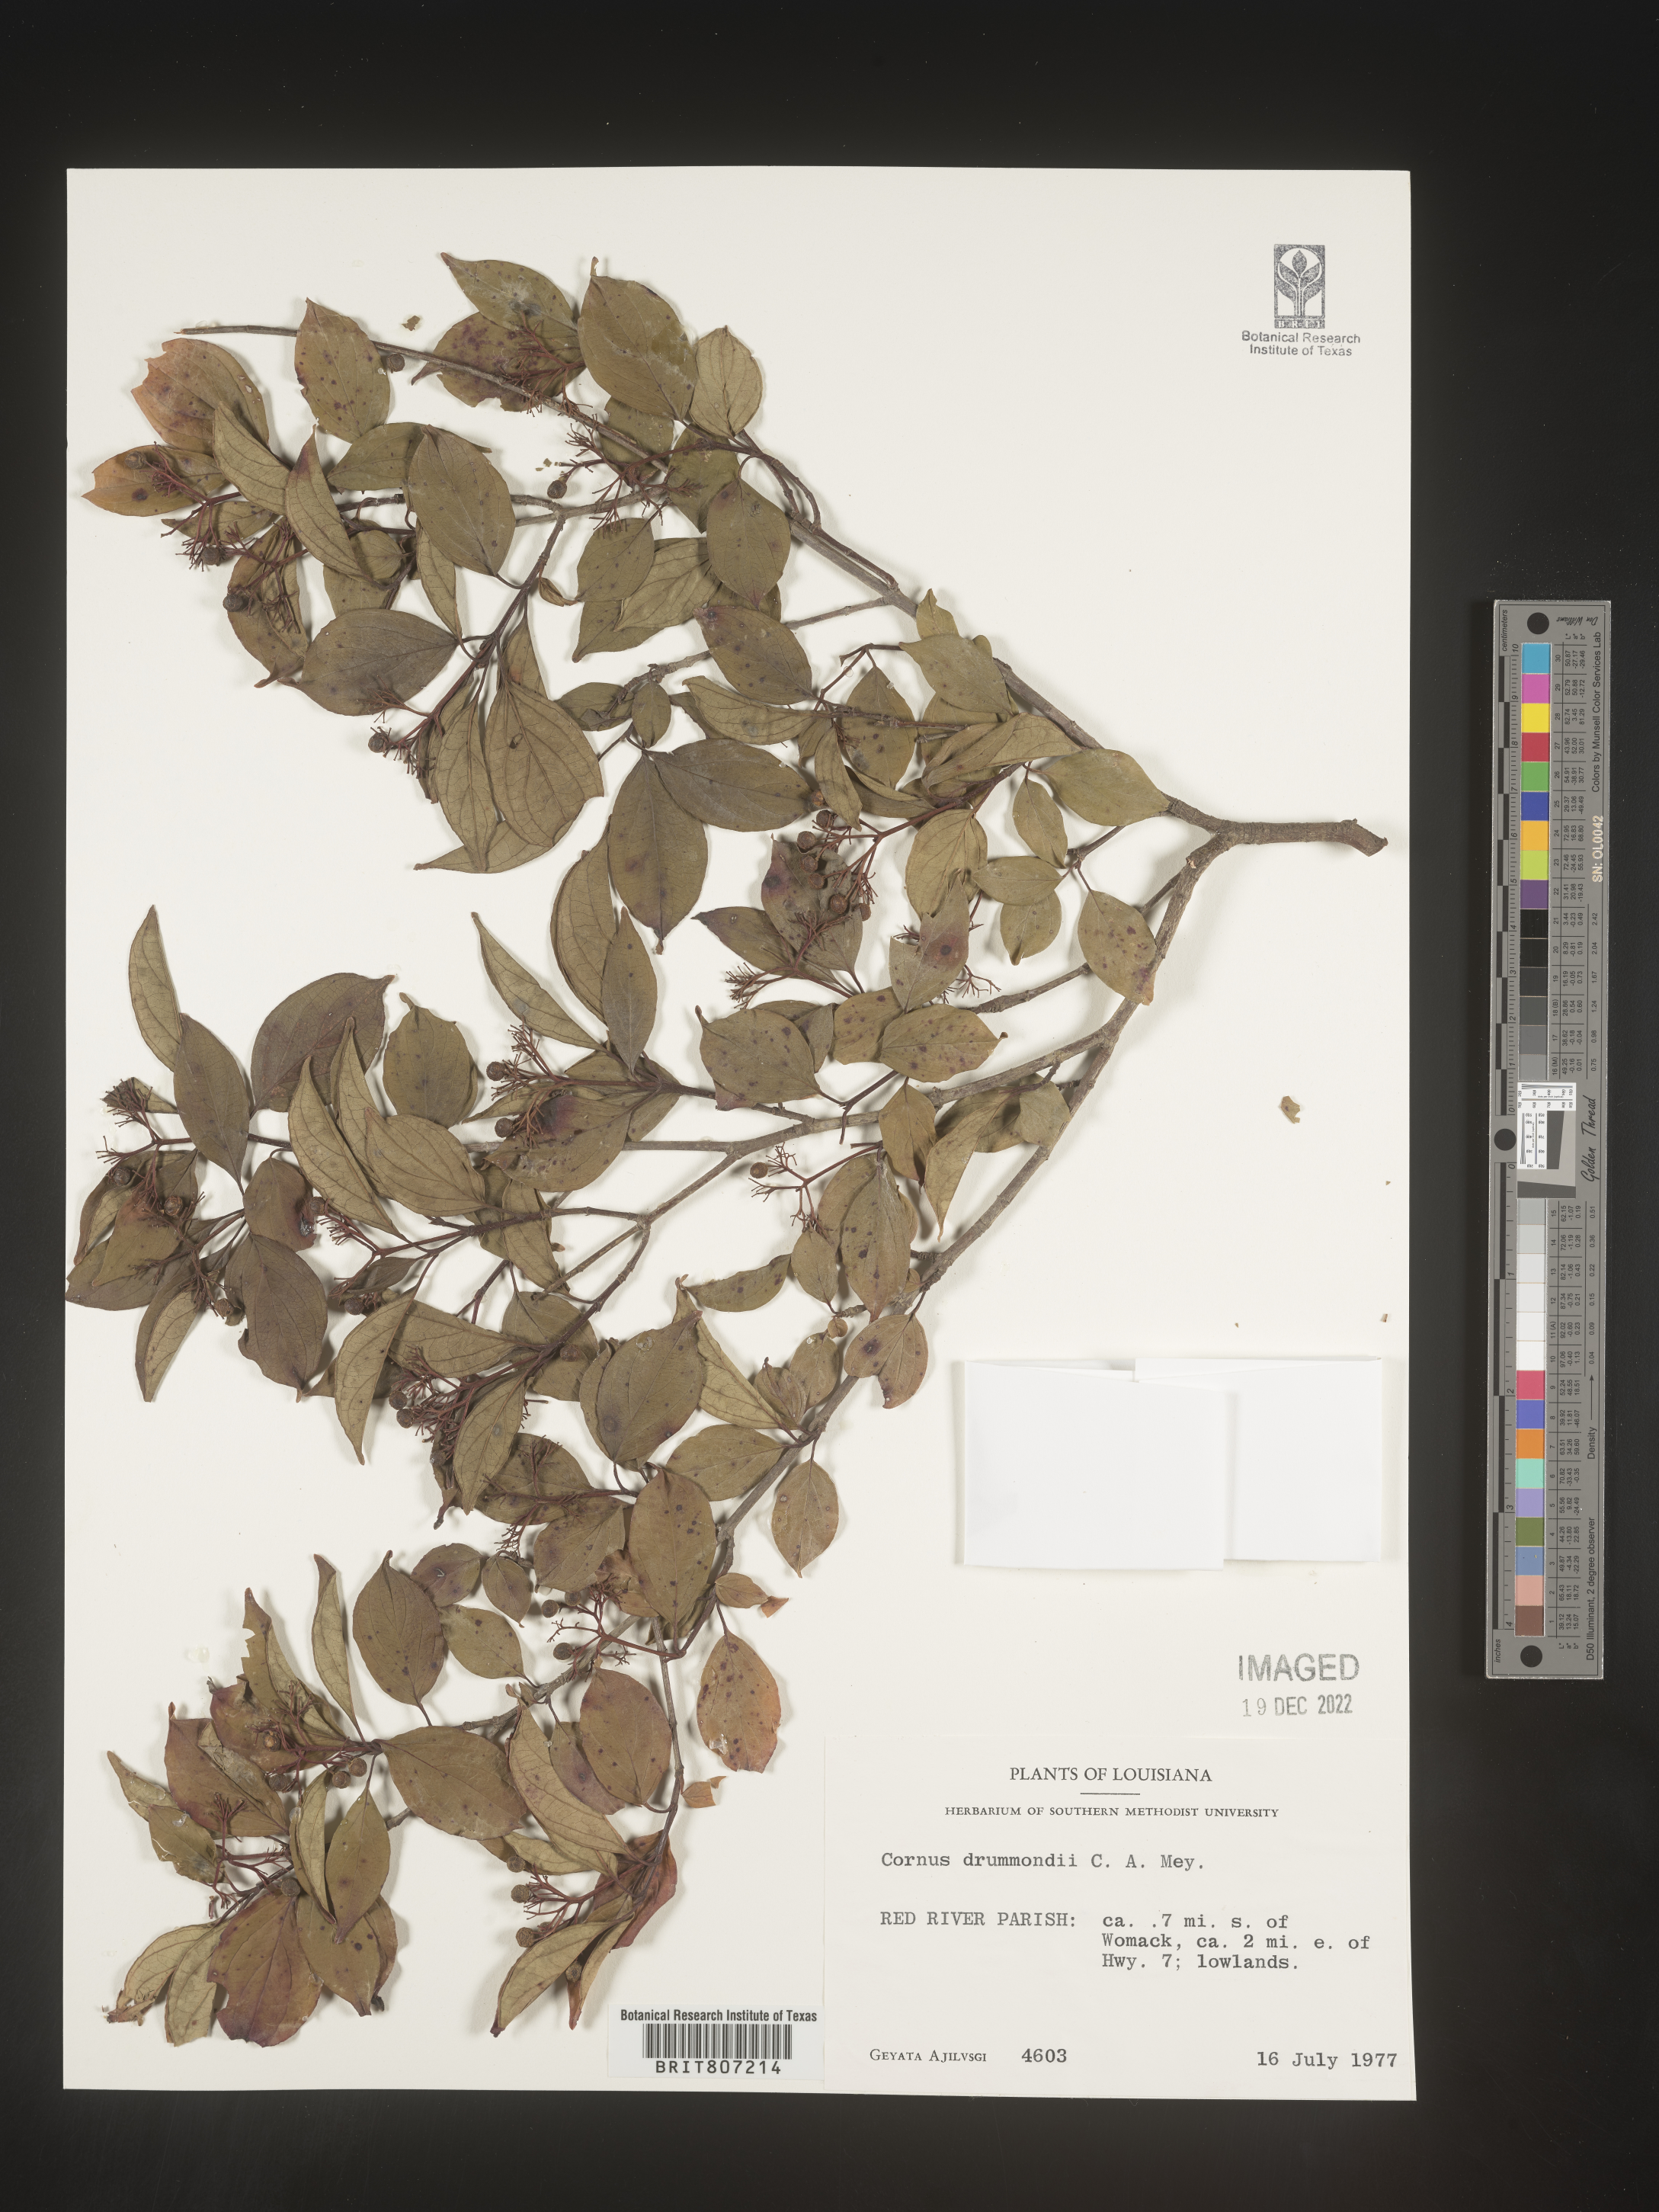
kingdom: Plantae
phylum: Tracheophyta
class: Magnoliopsida
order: Cornales
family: Cornaceae
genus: Cornus
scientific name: Cornus drummondii
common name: Rough-leaf dogwood
